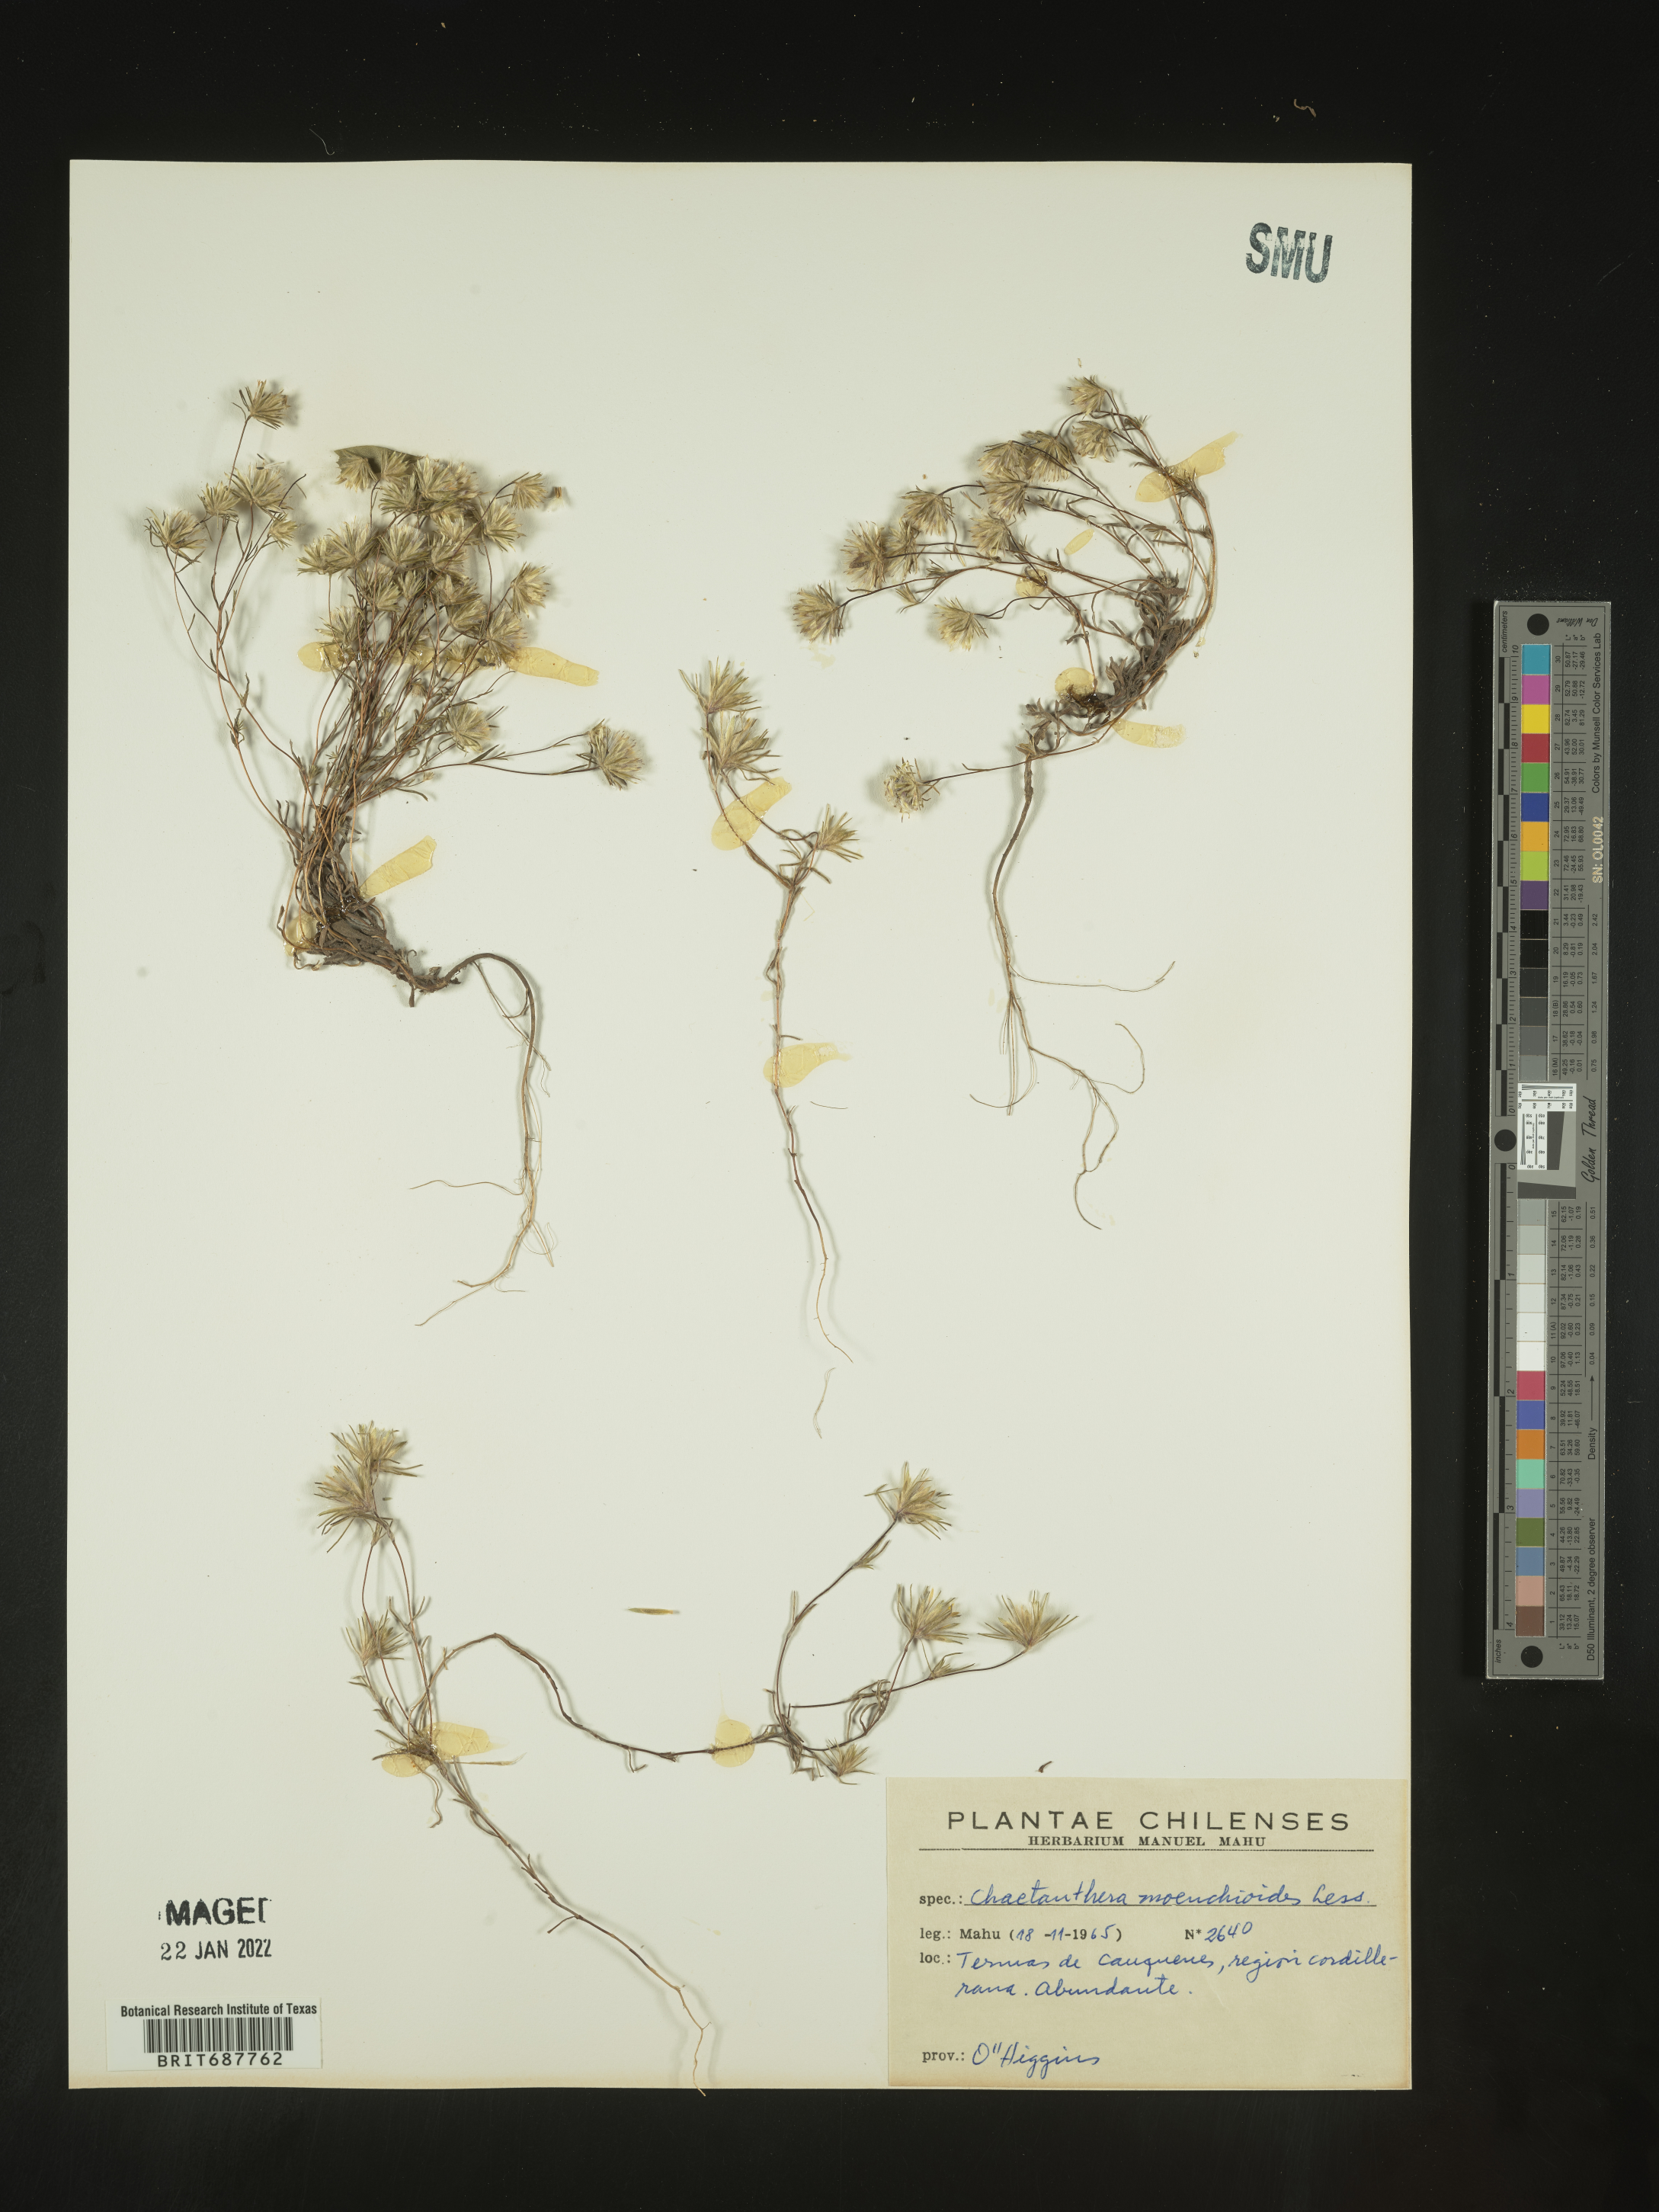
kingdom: Plantae
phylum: Tracheophyta
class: Magnoliopsida
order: Asterales
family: Asteraceae
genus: Chaetanthera
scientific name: Chaetanthera
